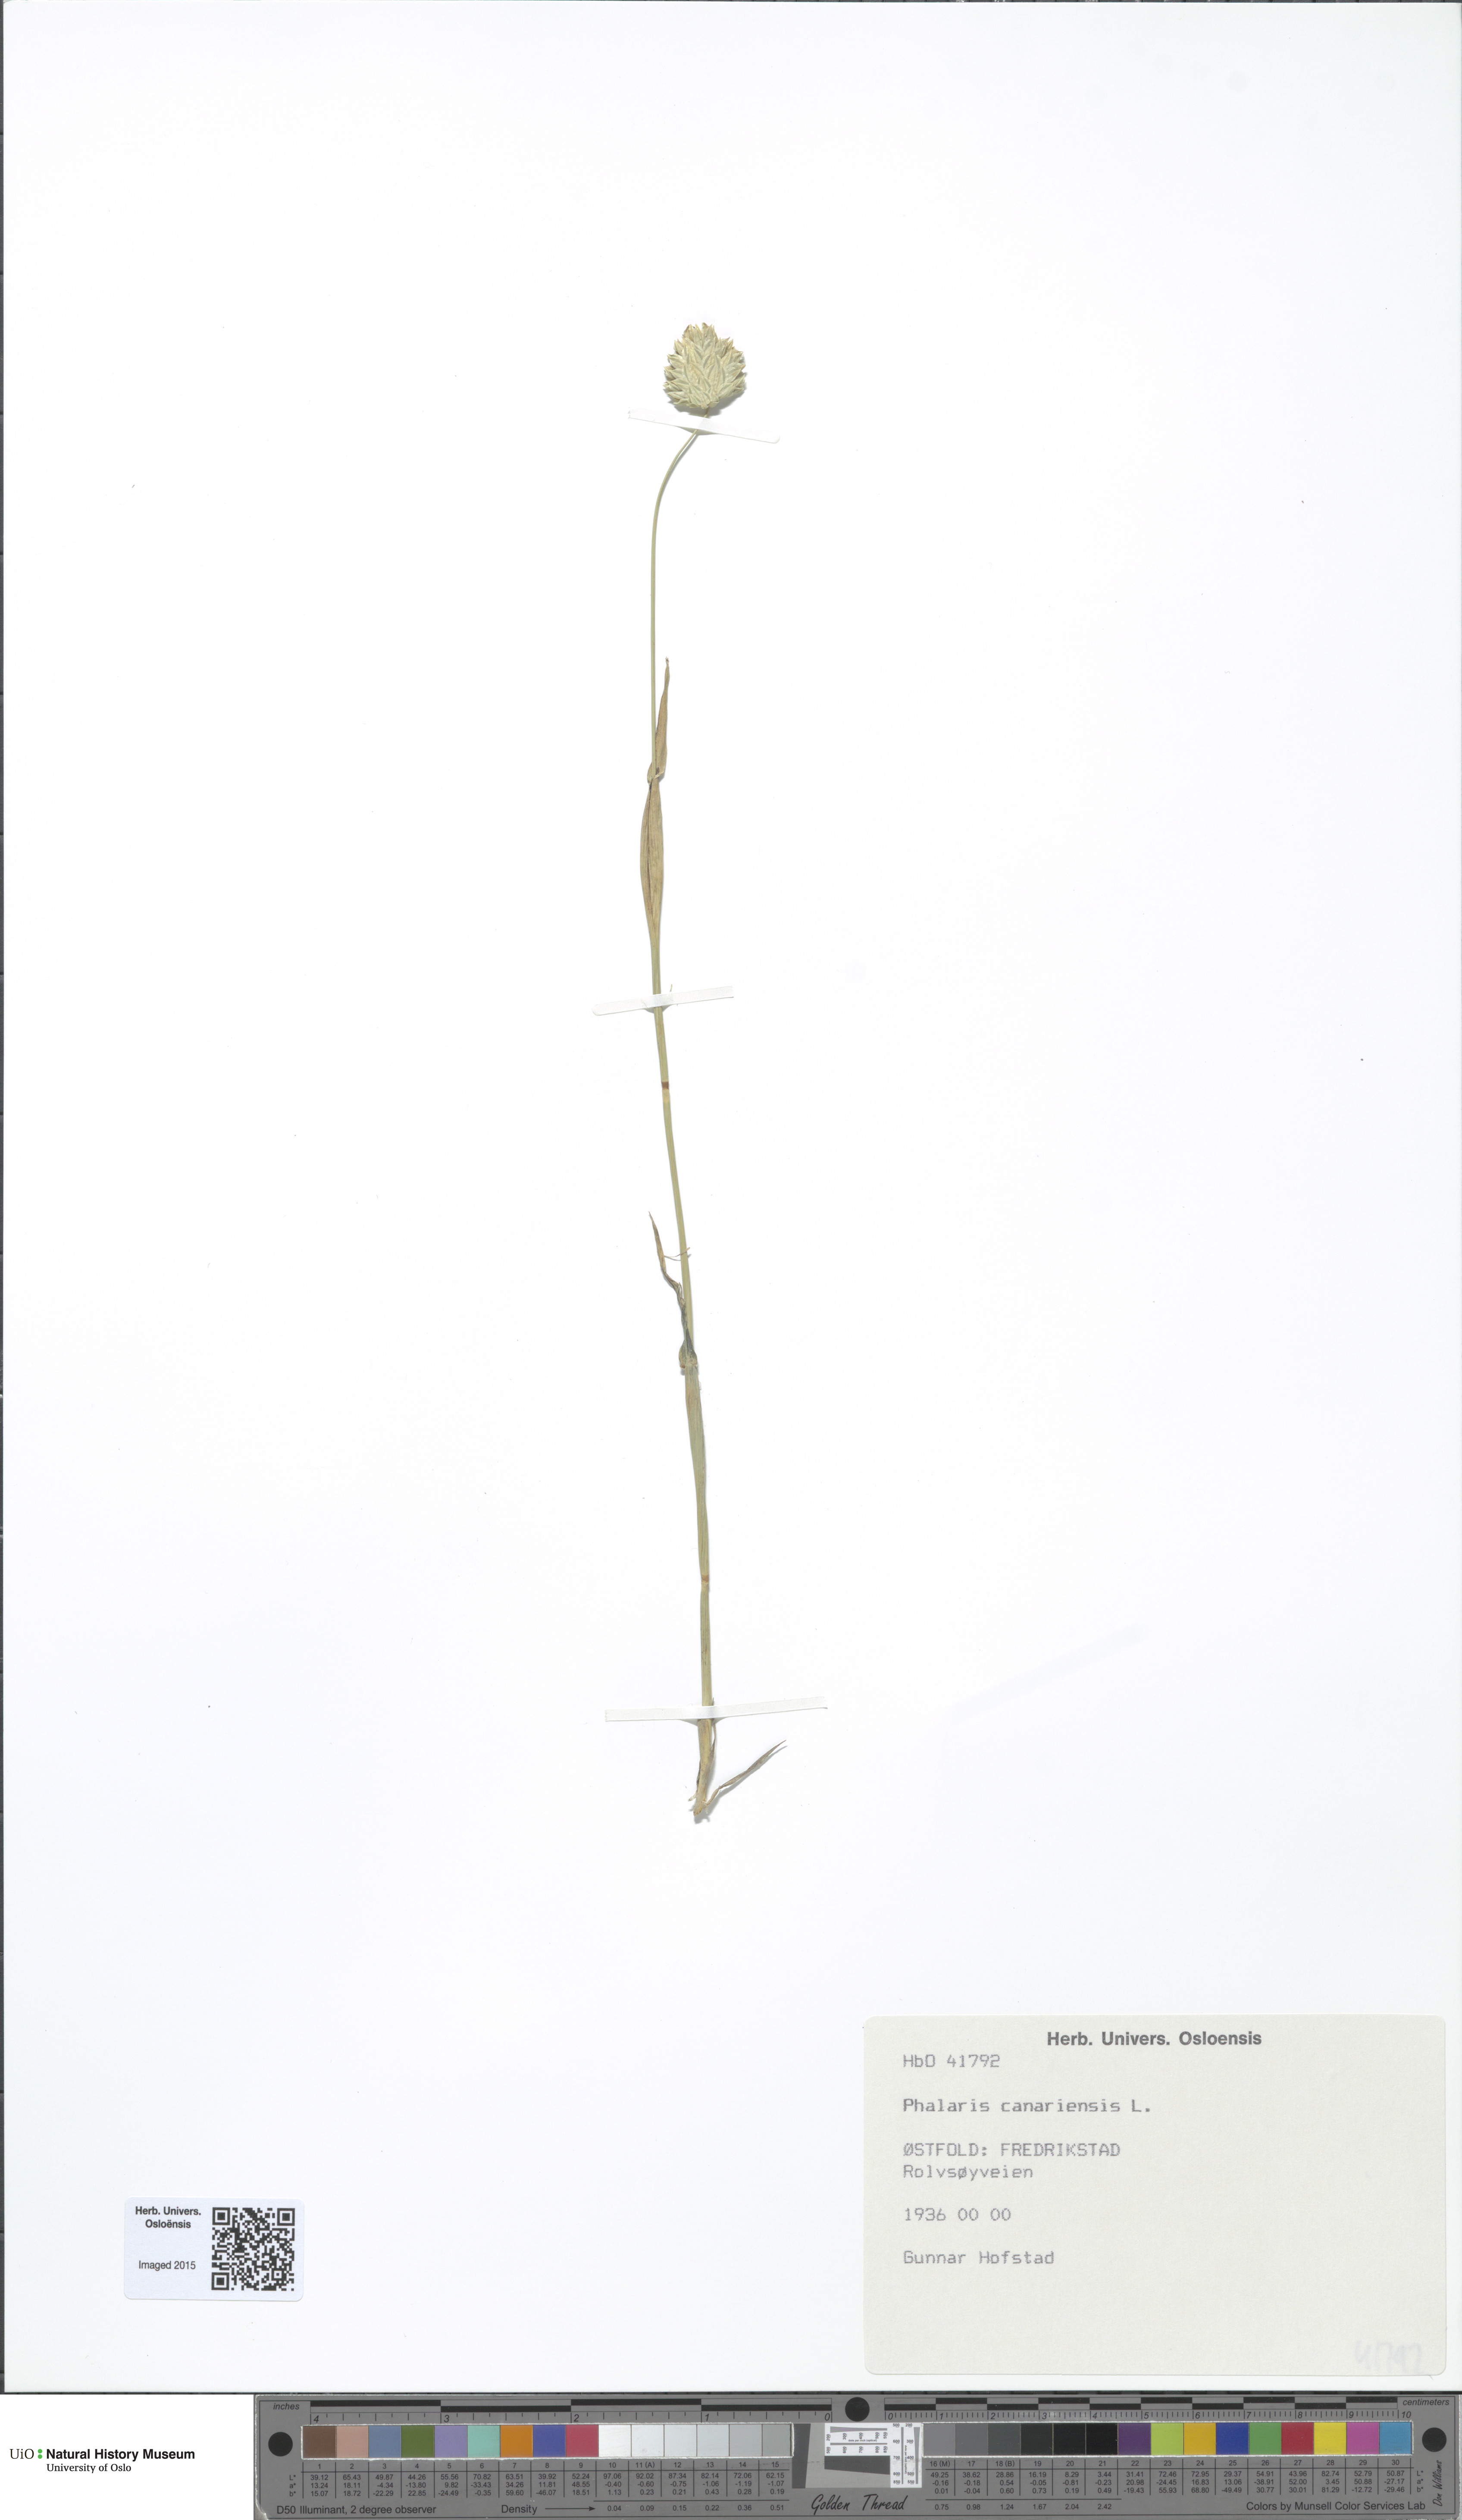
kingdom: Plantae
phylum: Tracheophyta
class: Liliopsida
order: Poales
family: Poaceae
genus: Phalaris
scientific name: Phalaris canariensis
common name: Annual canarygrass
